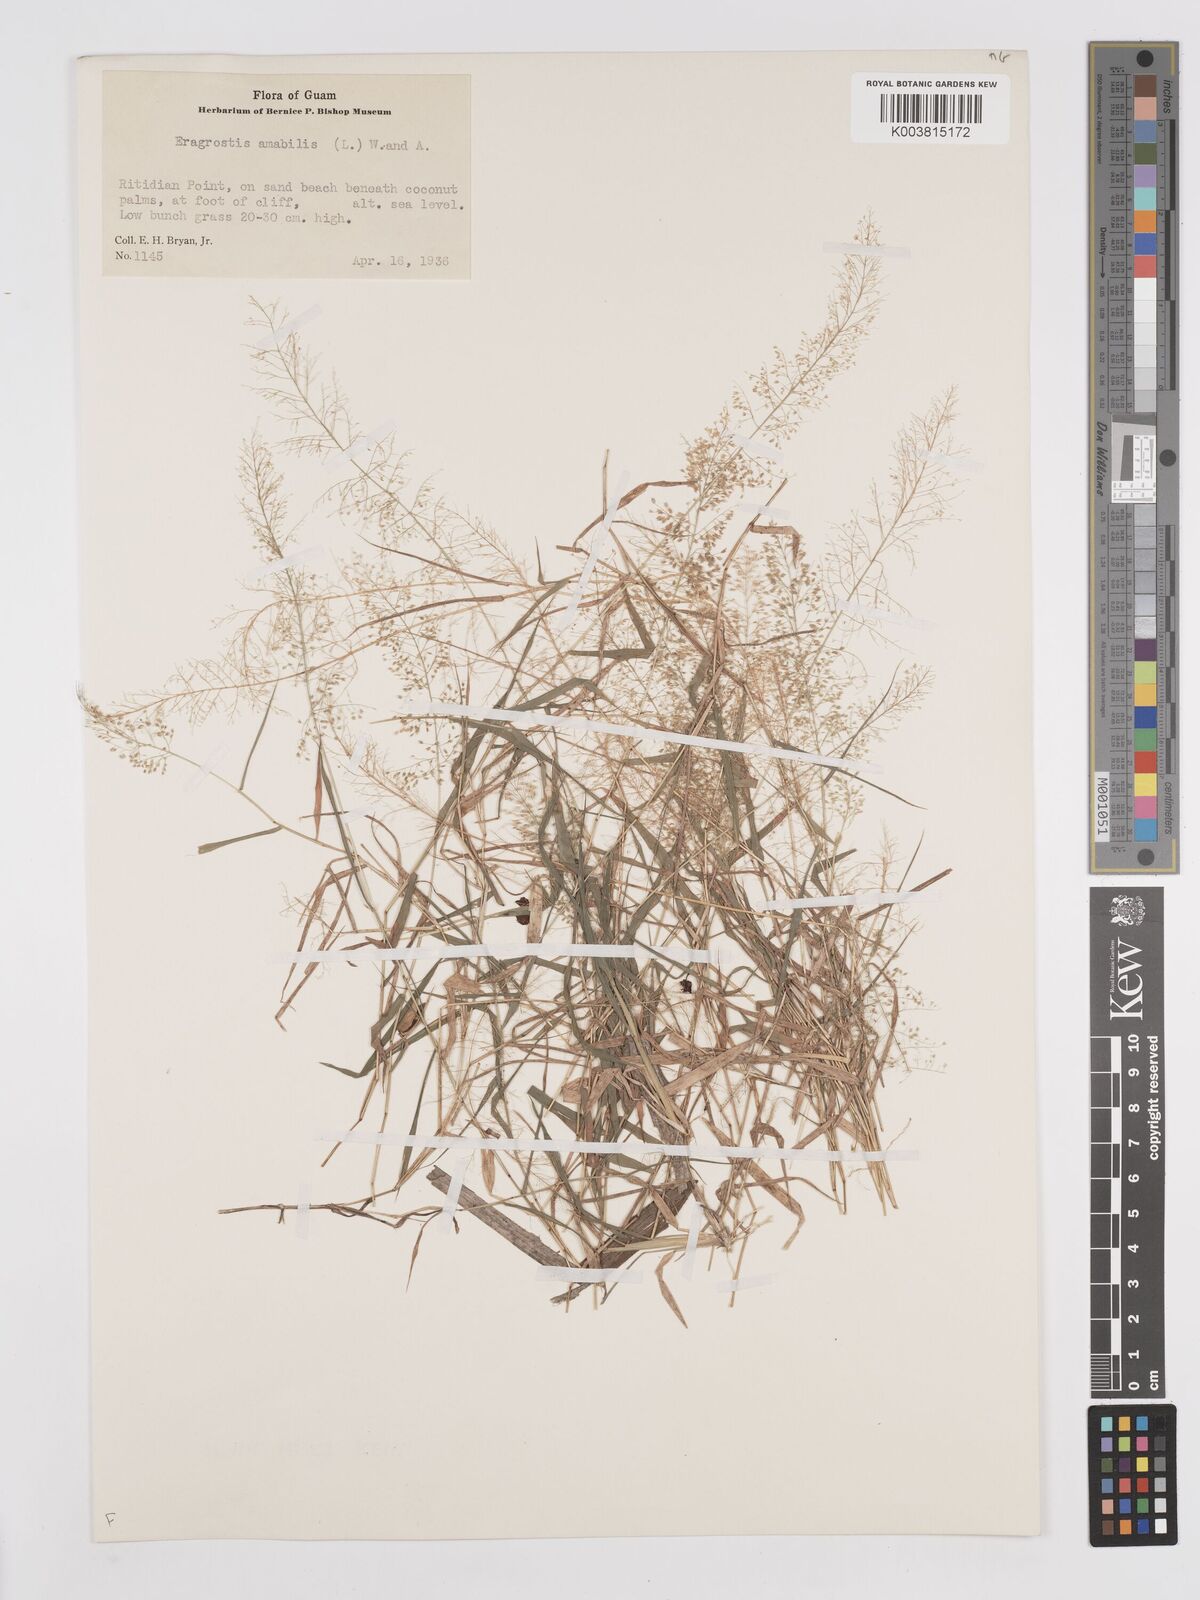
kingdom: Plantae
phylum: Tracheophyta
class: Liliopsida
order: Poales
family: Poaceae
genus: Eragrostis
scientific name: Eragrostis tenella
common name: Japanese lovegrass
